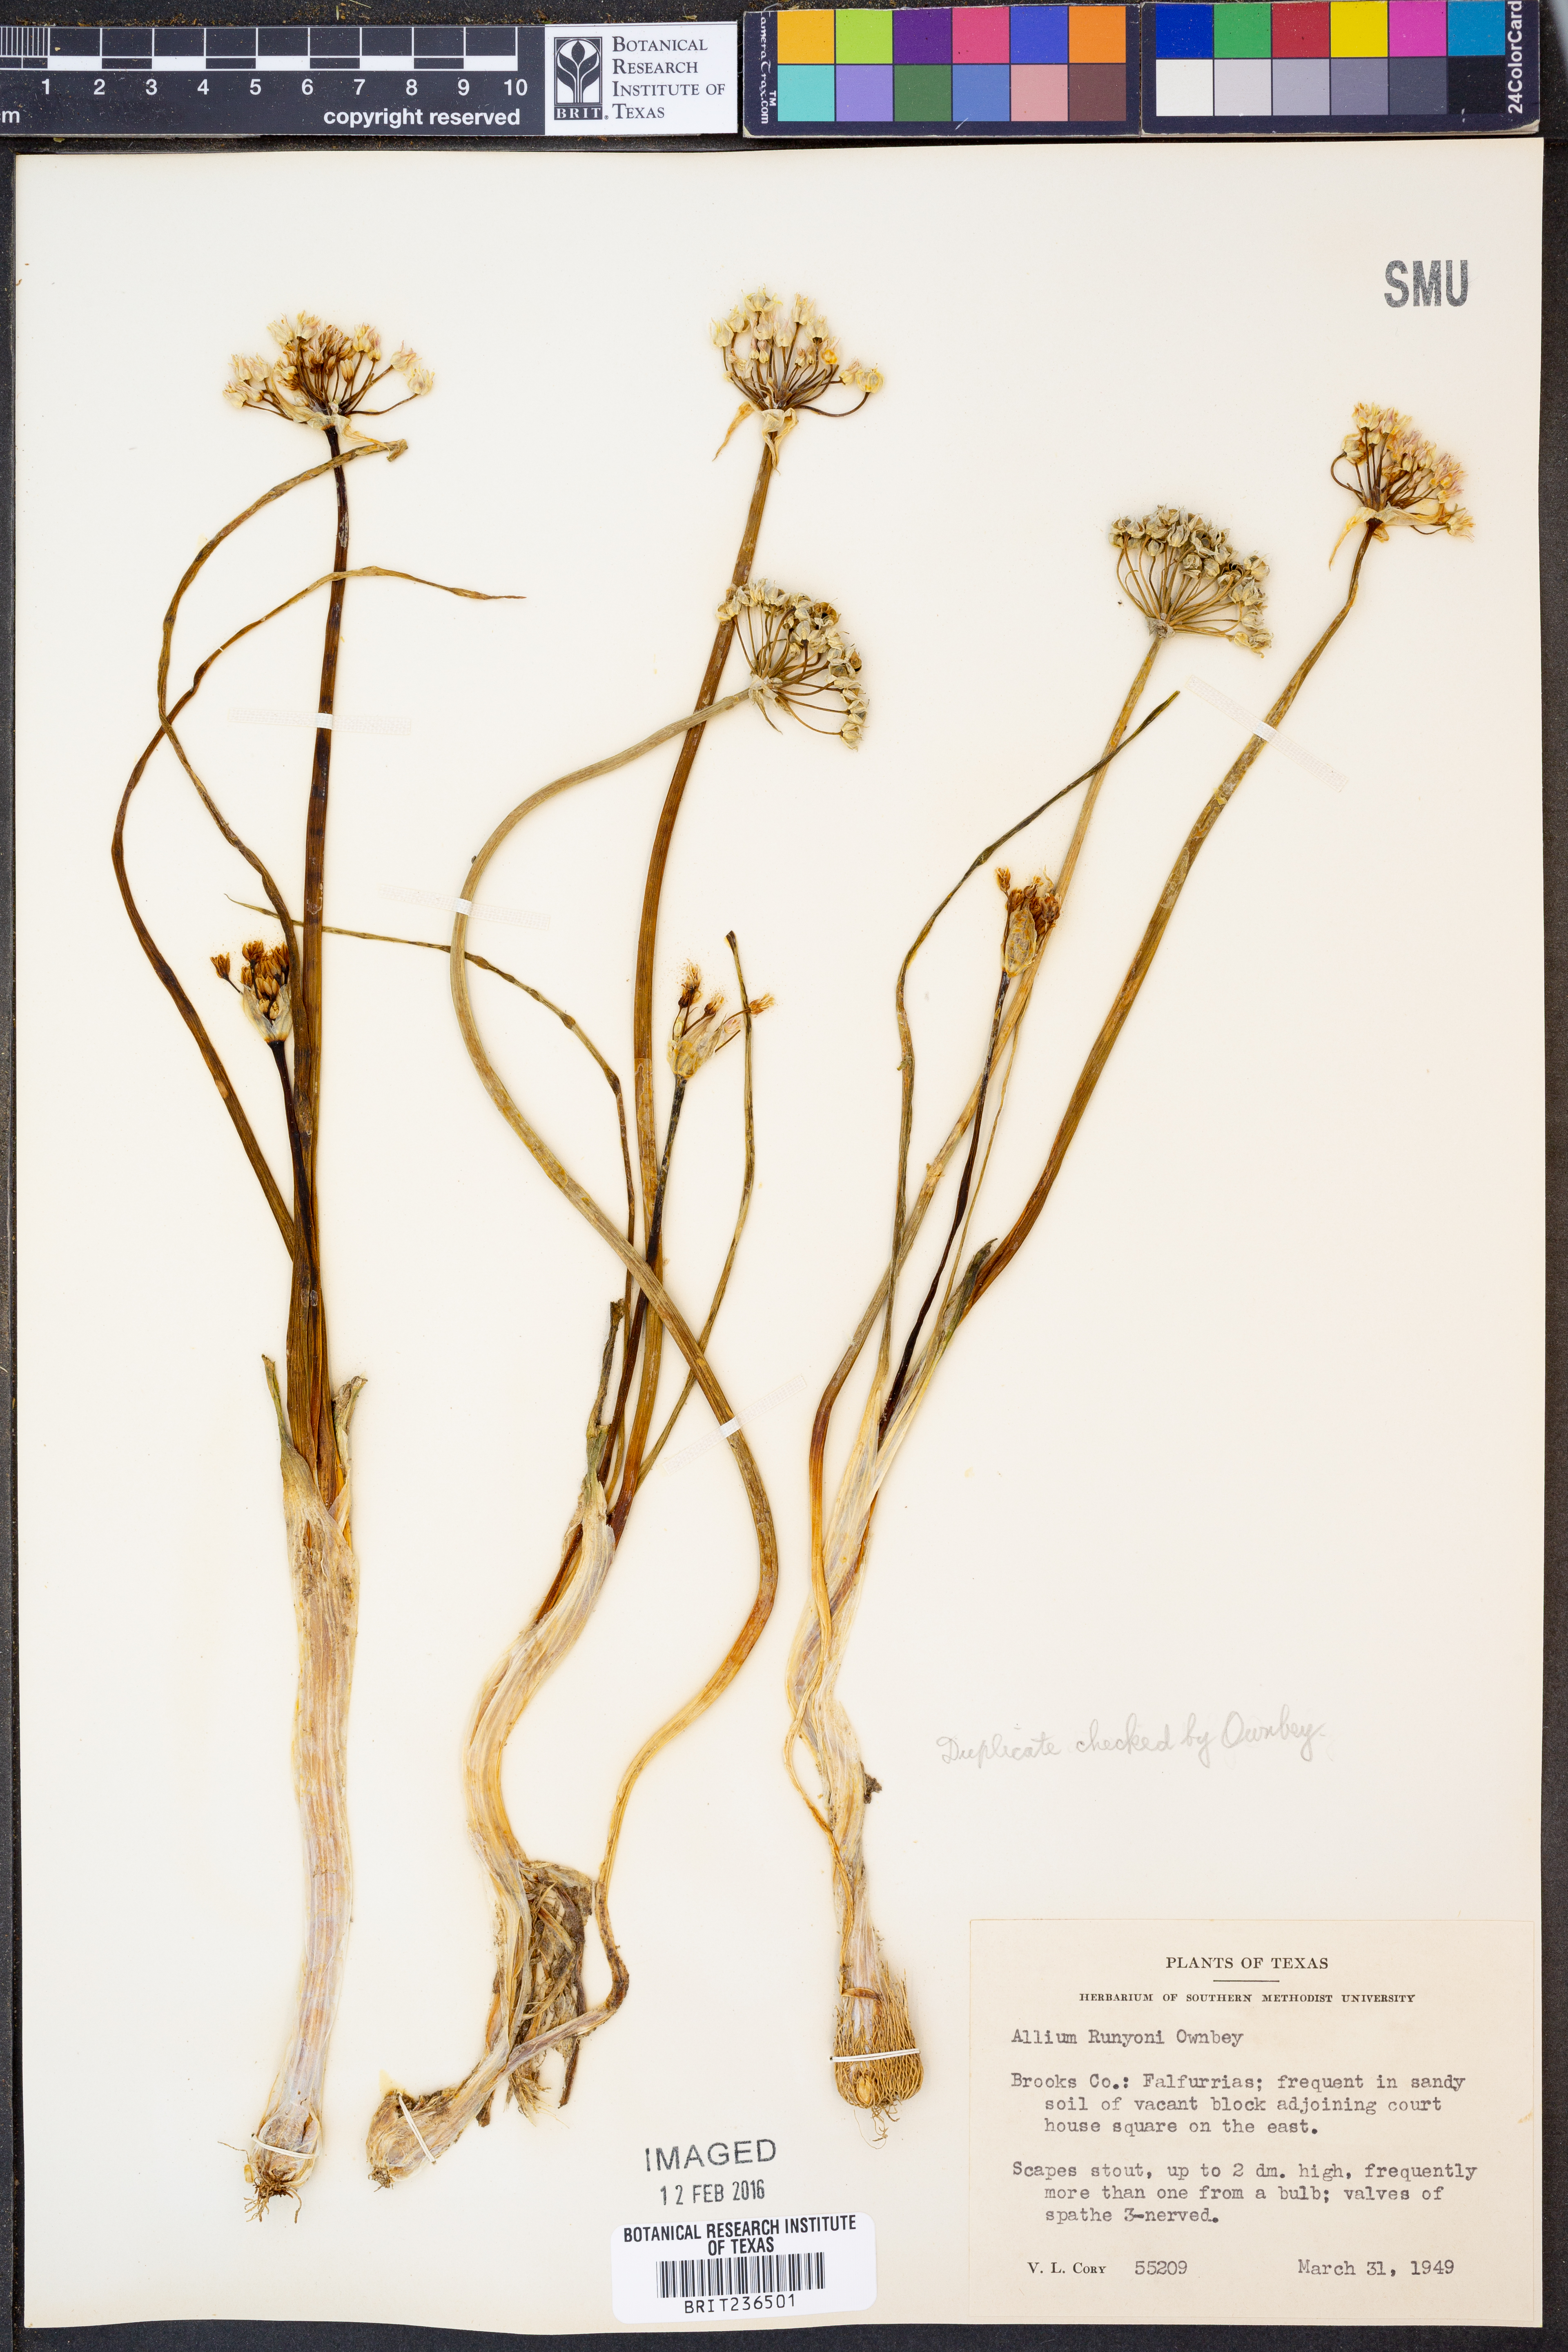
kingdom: Plantae
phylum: Tracheophyta
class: Liliopsida
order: Asparagales
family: Amaryllidaceae
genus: Allium
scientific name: Allium runyonii
